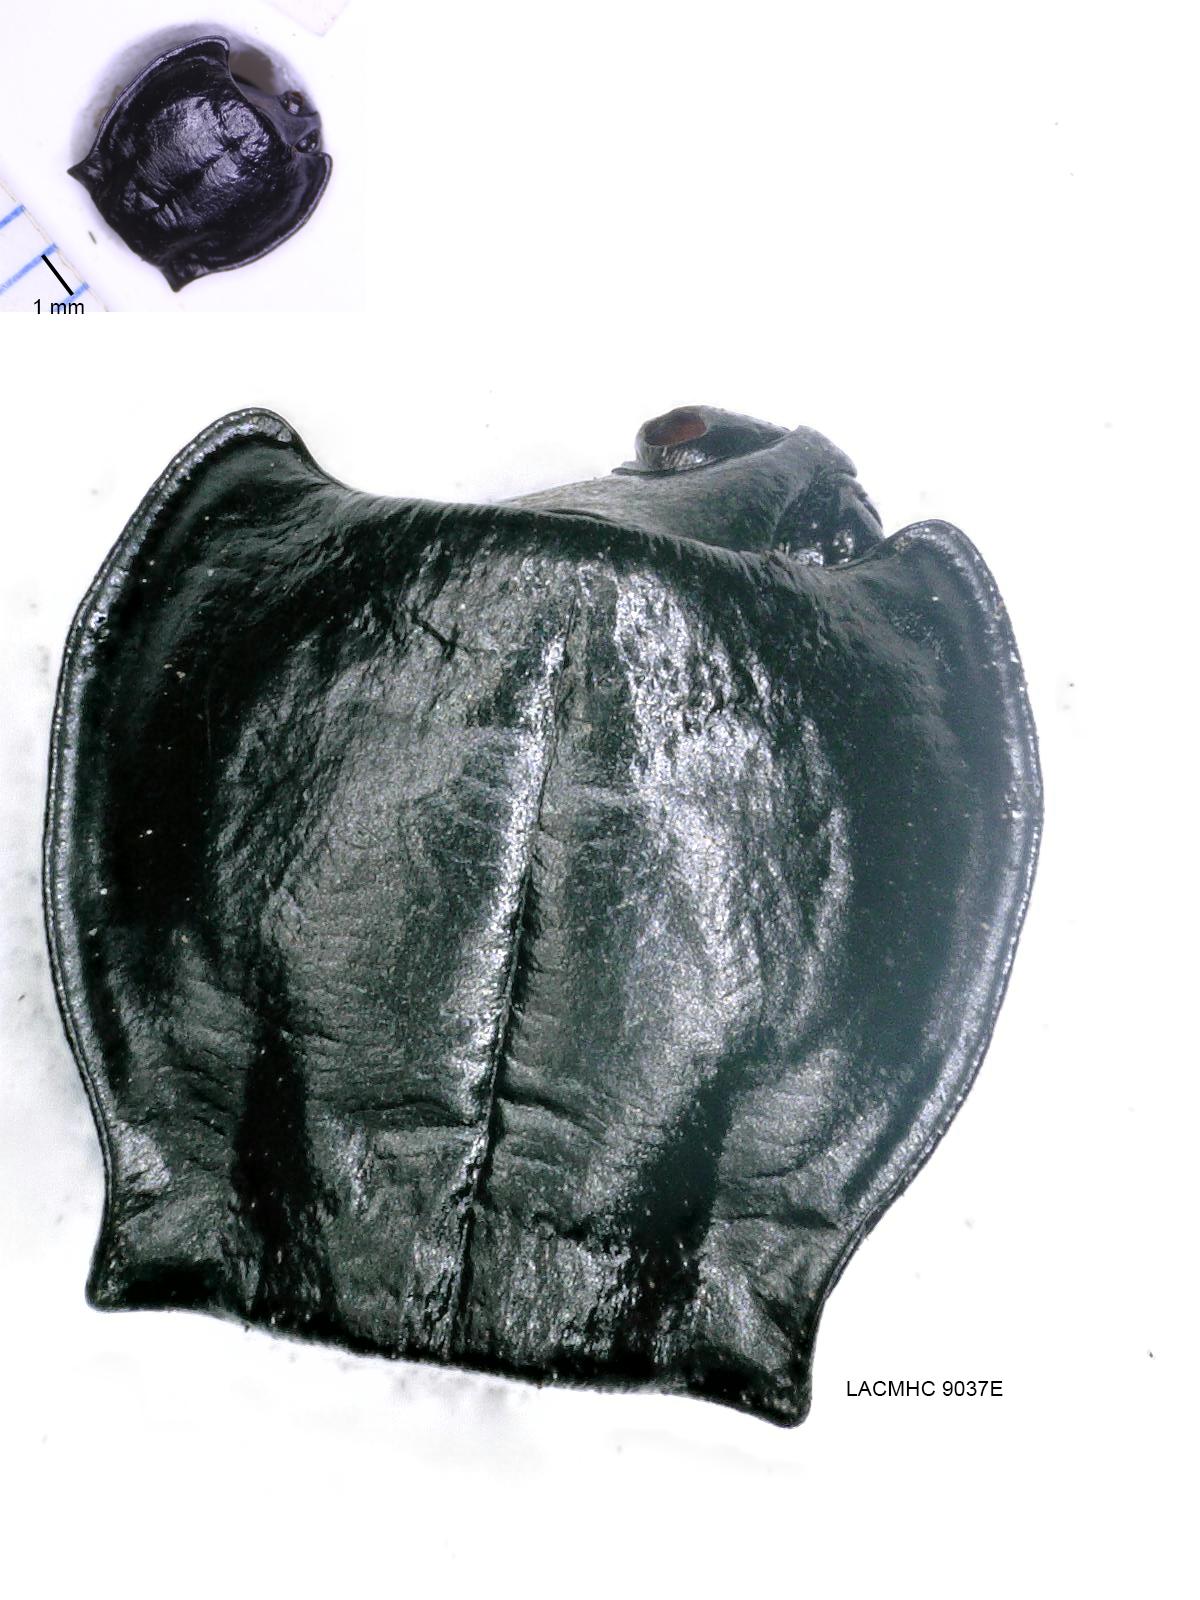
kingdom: Animalia
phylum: Arthropoda
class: Insecta
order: Coleoptera
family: Carabidae
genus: Pterostichus
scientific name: Pterostichus illustris
